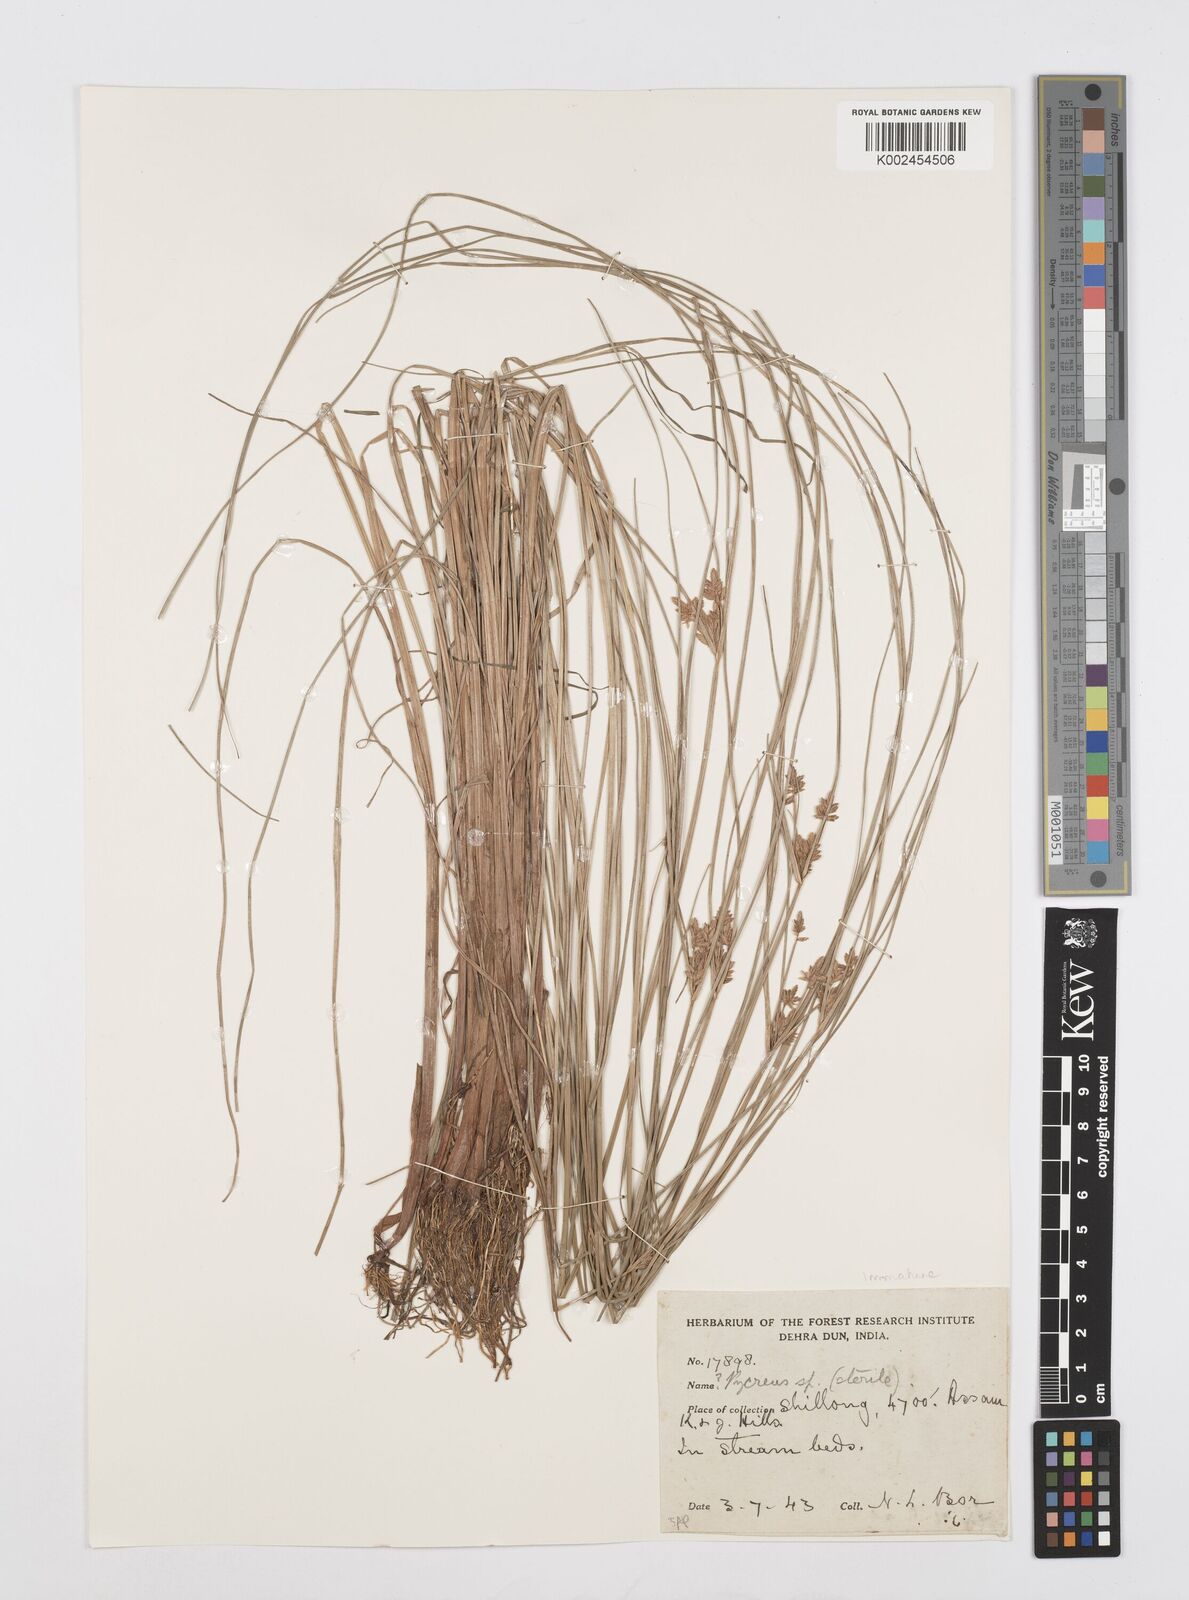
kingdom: Plantae
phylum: Tracheophyta
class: Liliopsida
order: Poales
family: Cyperaceae
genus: Cyperus
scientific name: Cyperus
